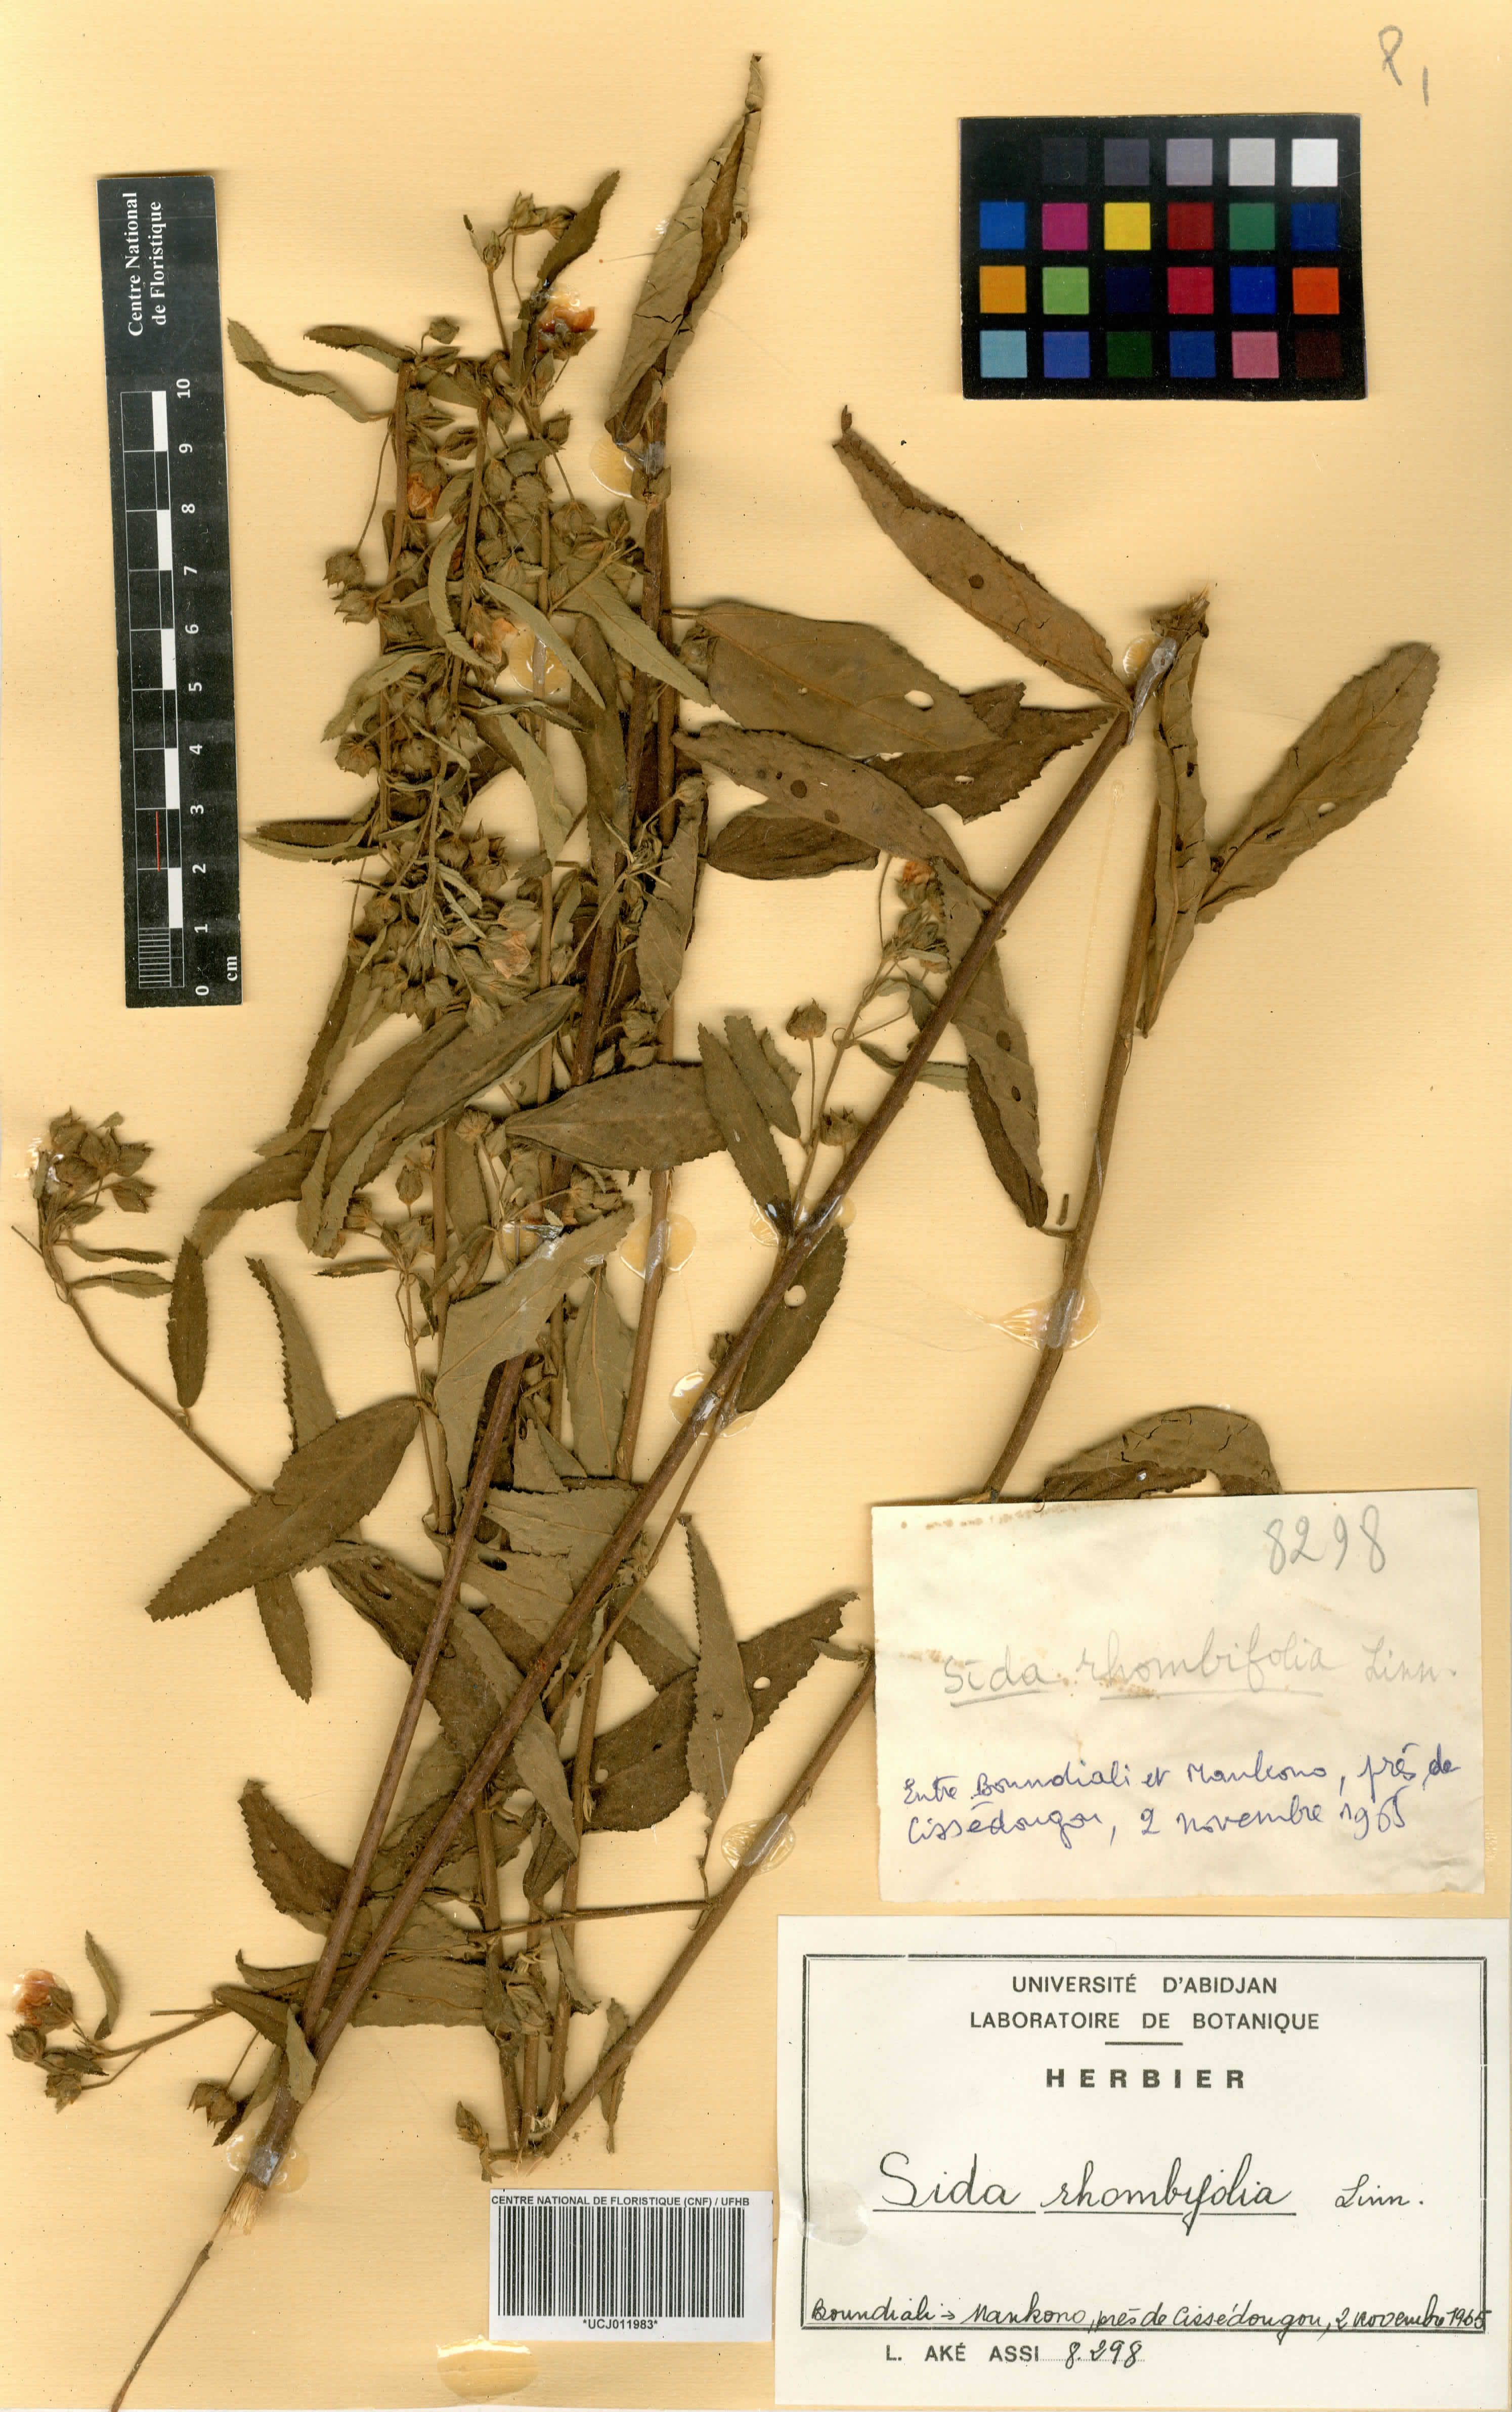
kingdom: Plantae
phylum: Tracheophyta
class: Magnoliopsida
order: Malvales
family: Malvaceae
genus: Sida
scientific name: Sida rhombifolia
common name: Queensland-hemp
